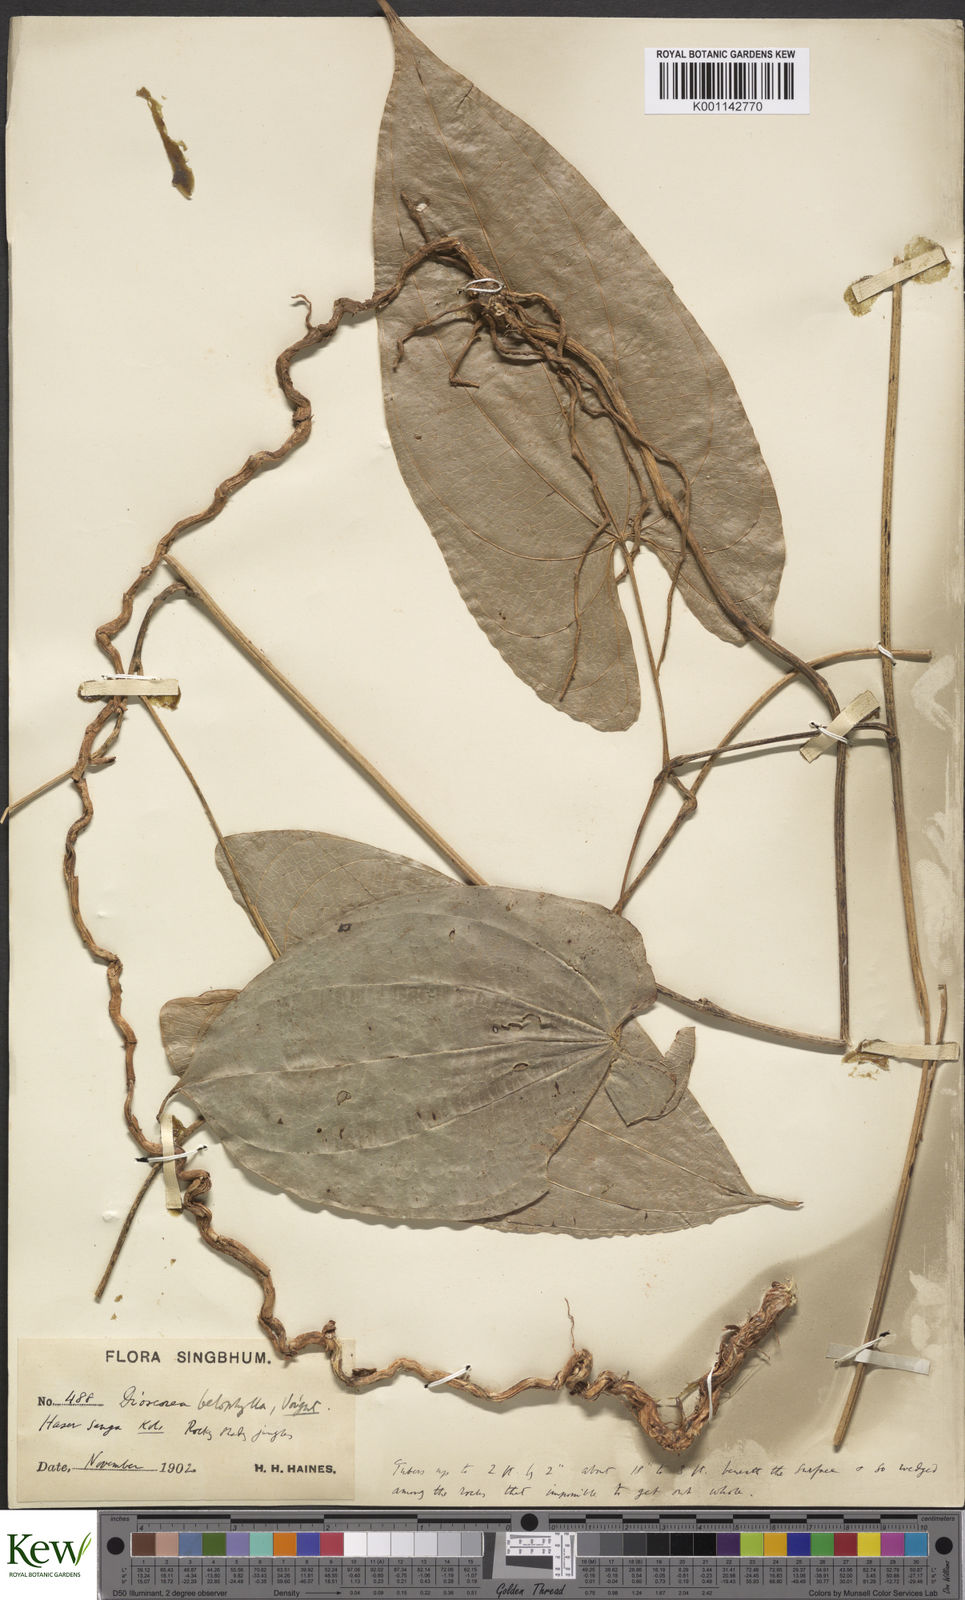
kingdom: Plantae
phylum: Tracheophyta
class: Liliopsida
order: Dioscoreales
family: Dioscoreaceae
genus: Dioscorea
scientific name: Dioscorea belophylla
